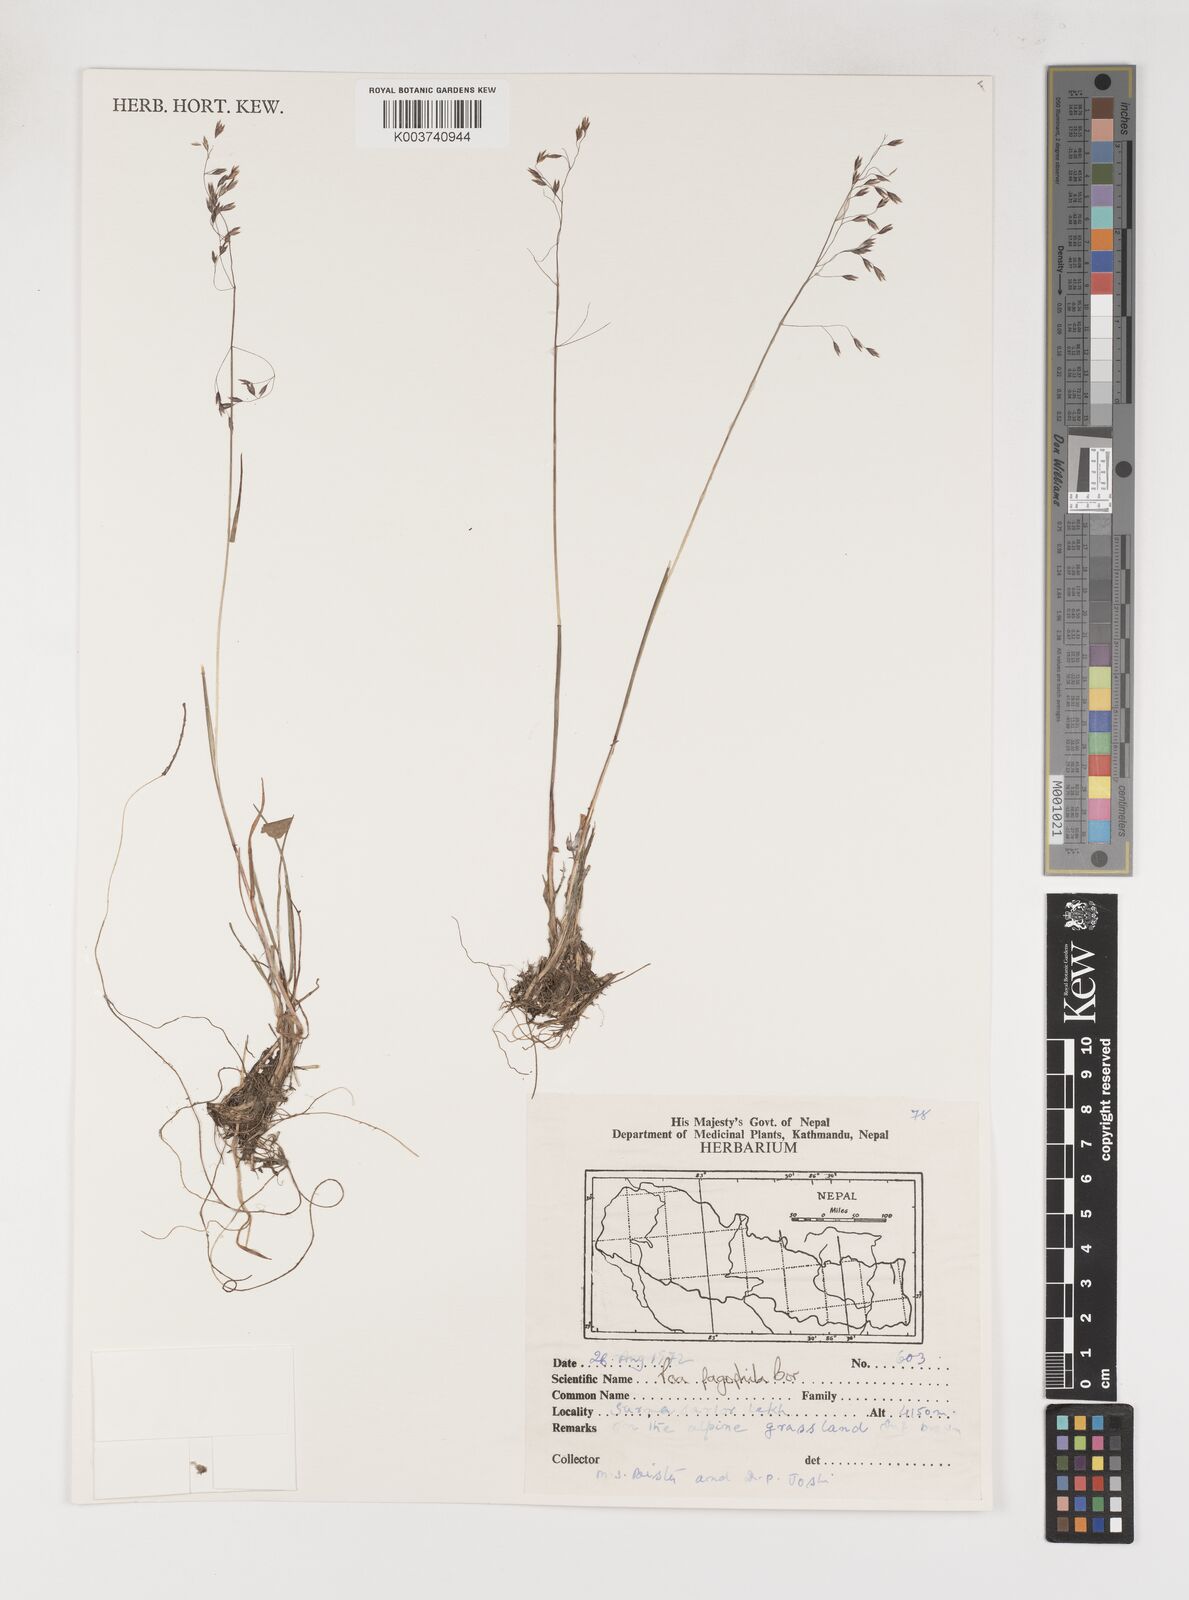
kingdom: Plantae
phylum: Tracheophyta
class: Liliopsida
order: Poales
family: Poaceae
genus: Poa
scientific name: Poa pagophila
